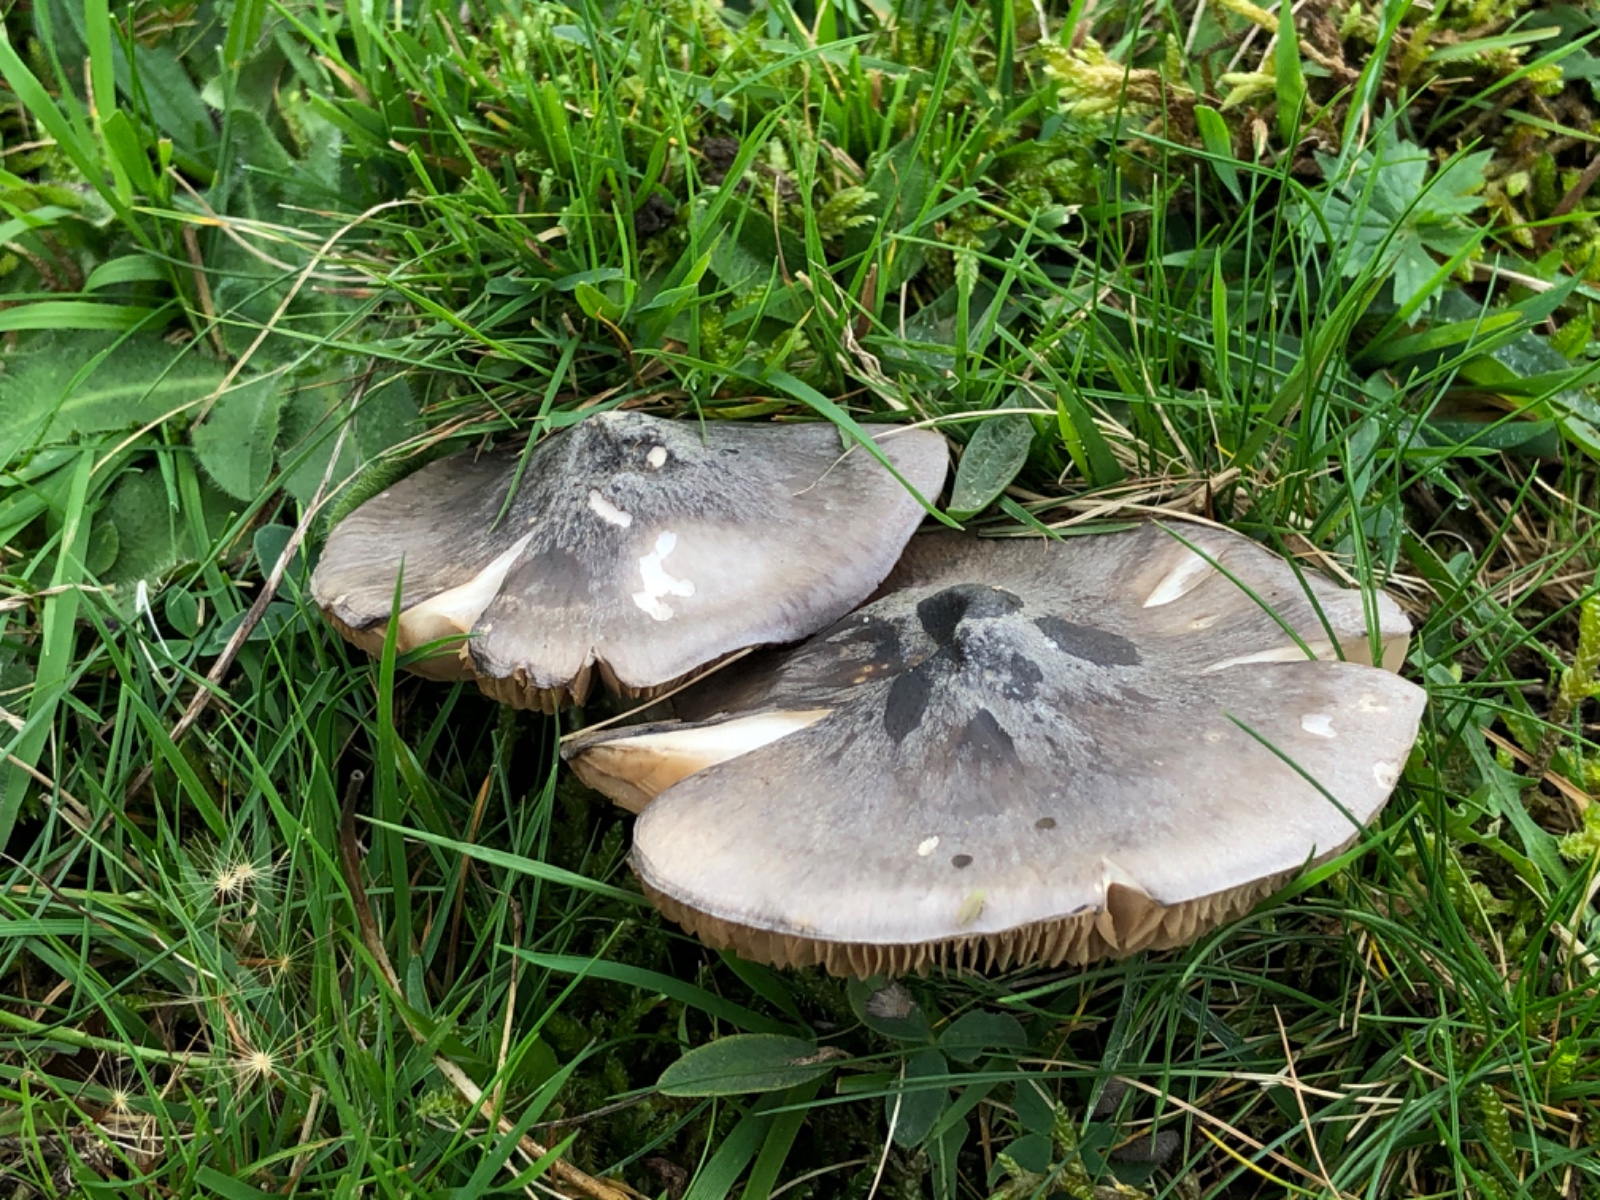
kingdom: Fungi
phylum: Basidiomycota
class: Agaricomycetes
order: Agaricales
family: Entolomataceae
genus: Entoloma
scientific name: Entoloma madidum
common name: indigo-rødblad
